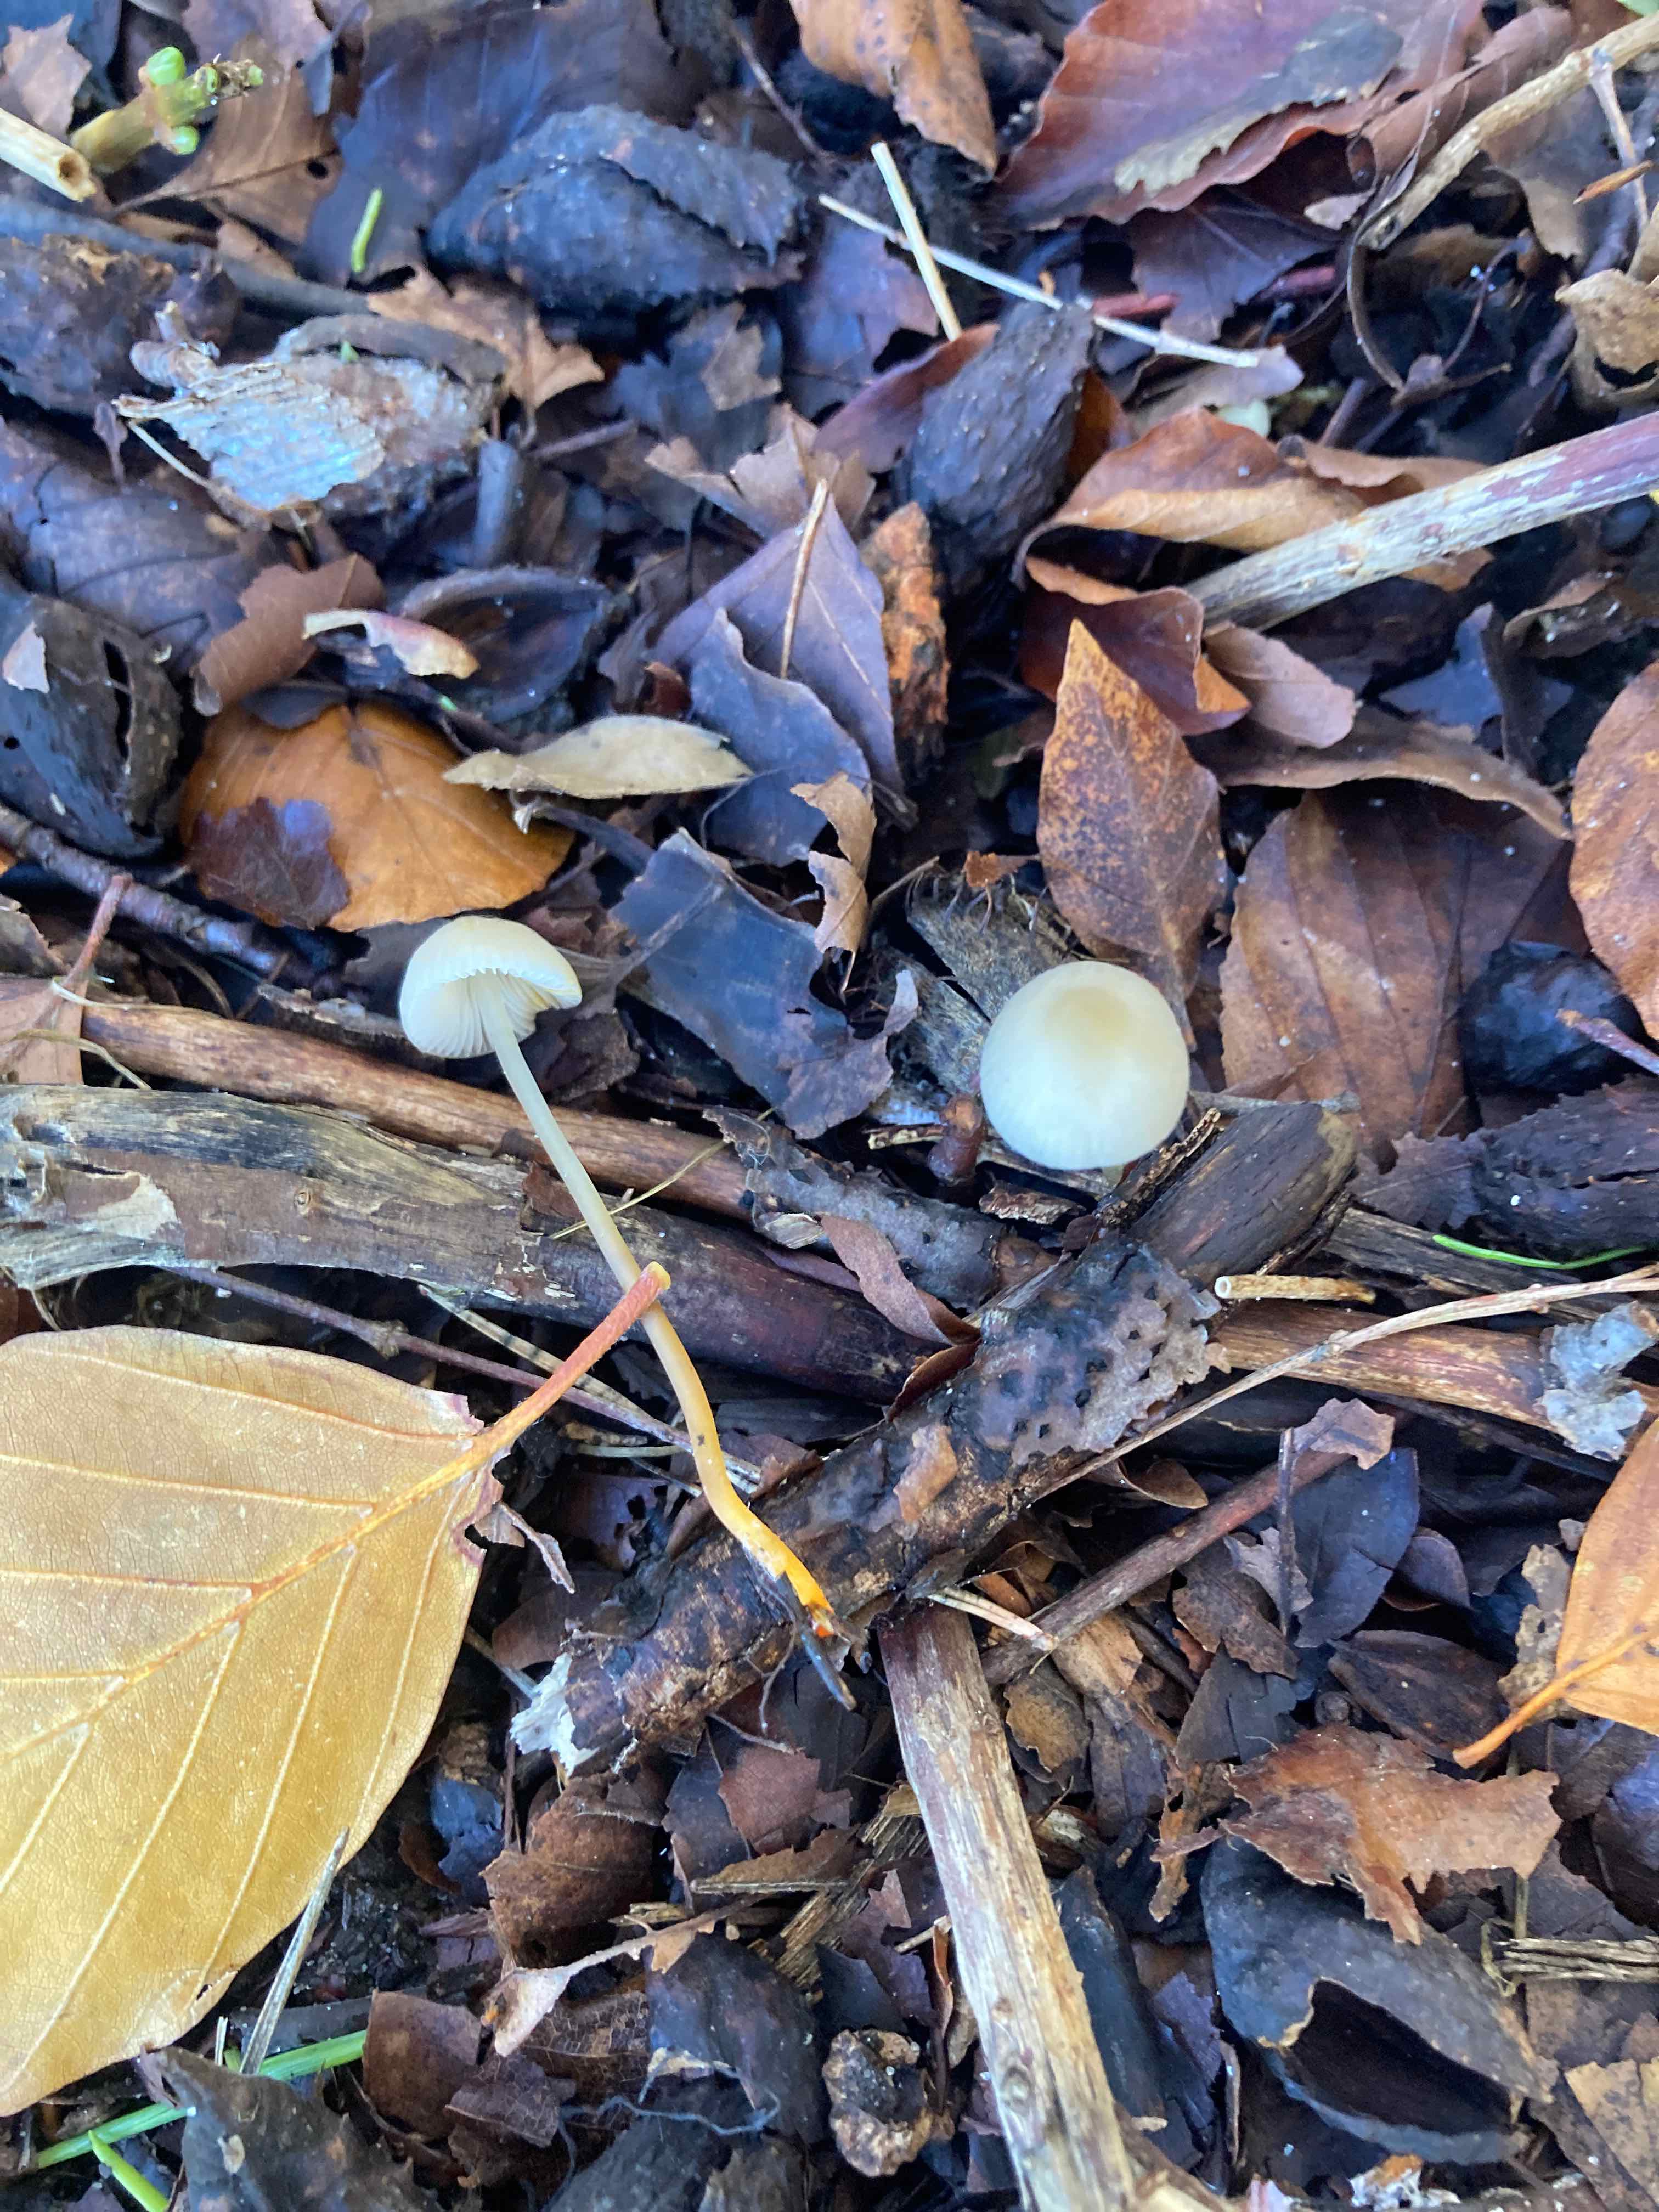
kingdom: Fungi
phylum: Basidiomycota
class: Agaricomycetes
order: Agaricales
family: Mycenaceae
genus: Mycena
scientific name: Mycena crocata
